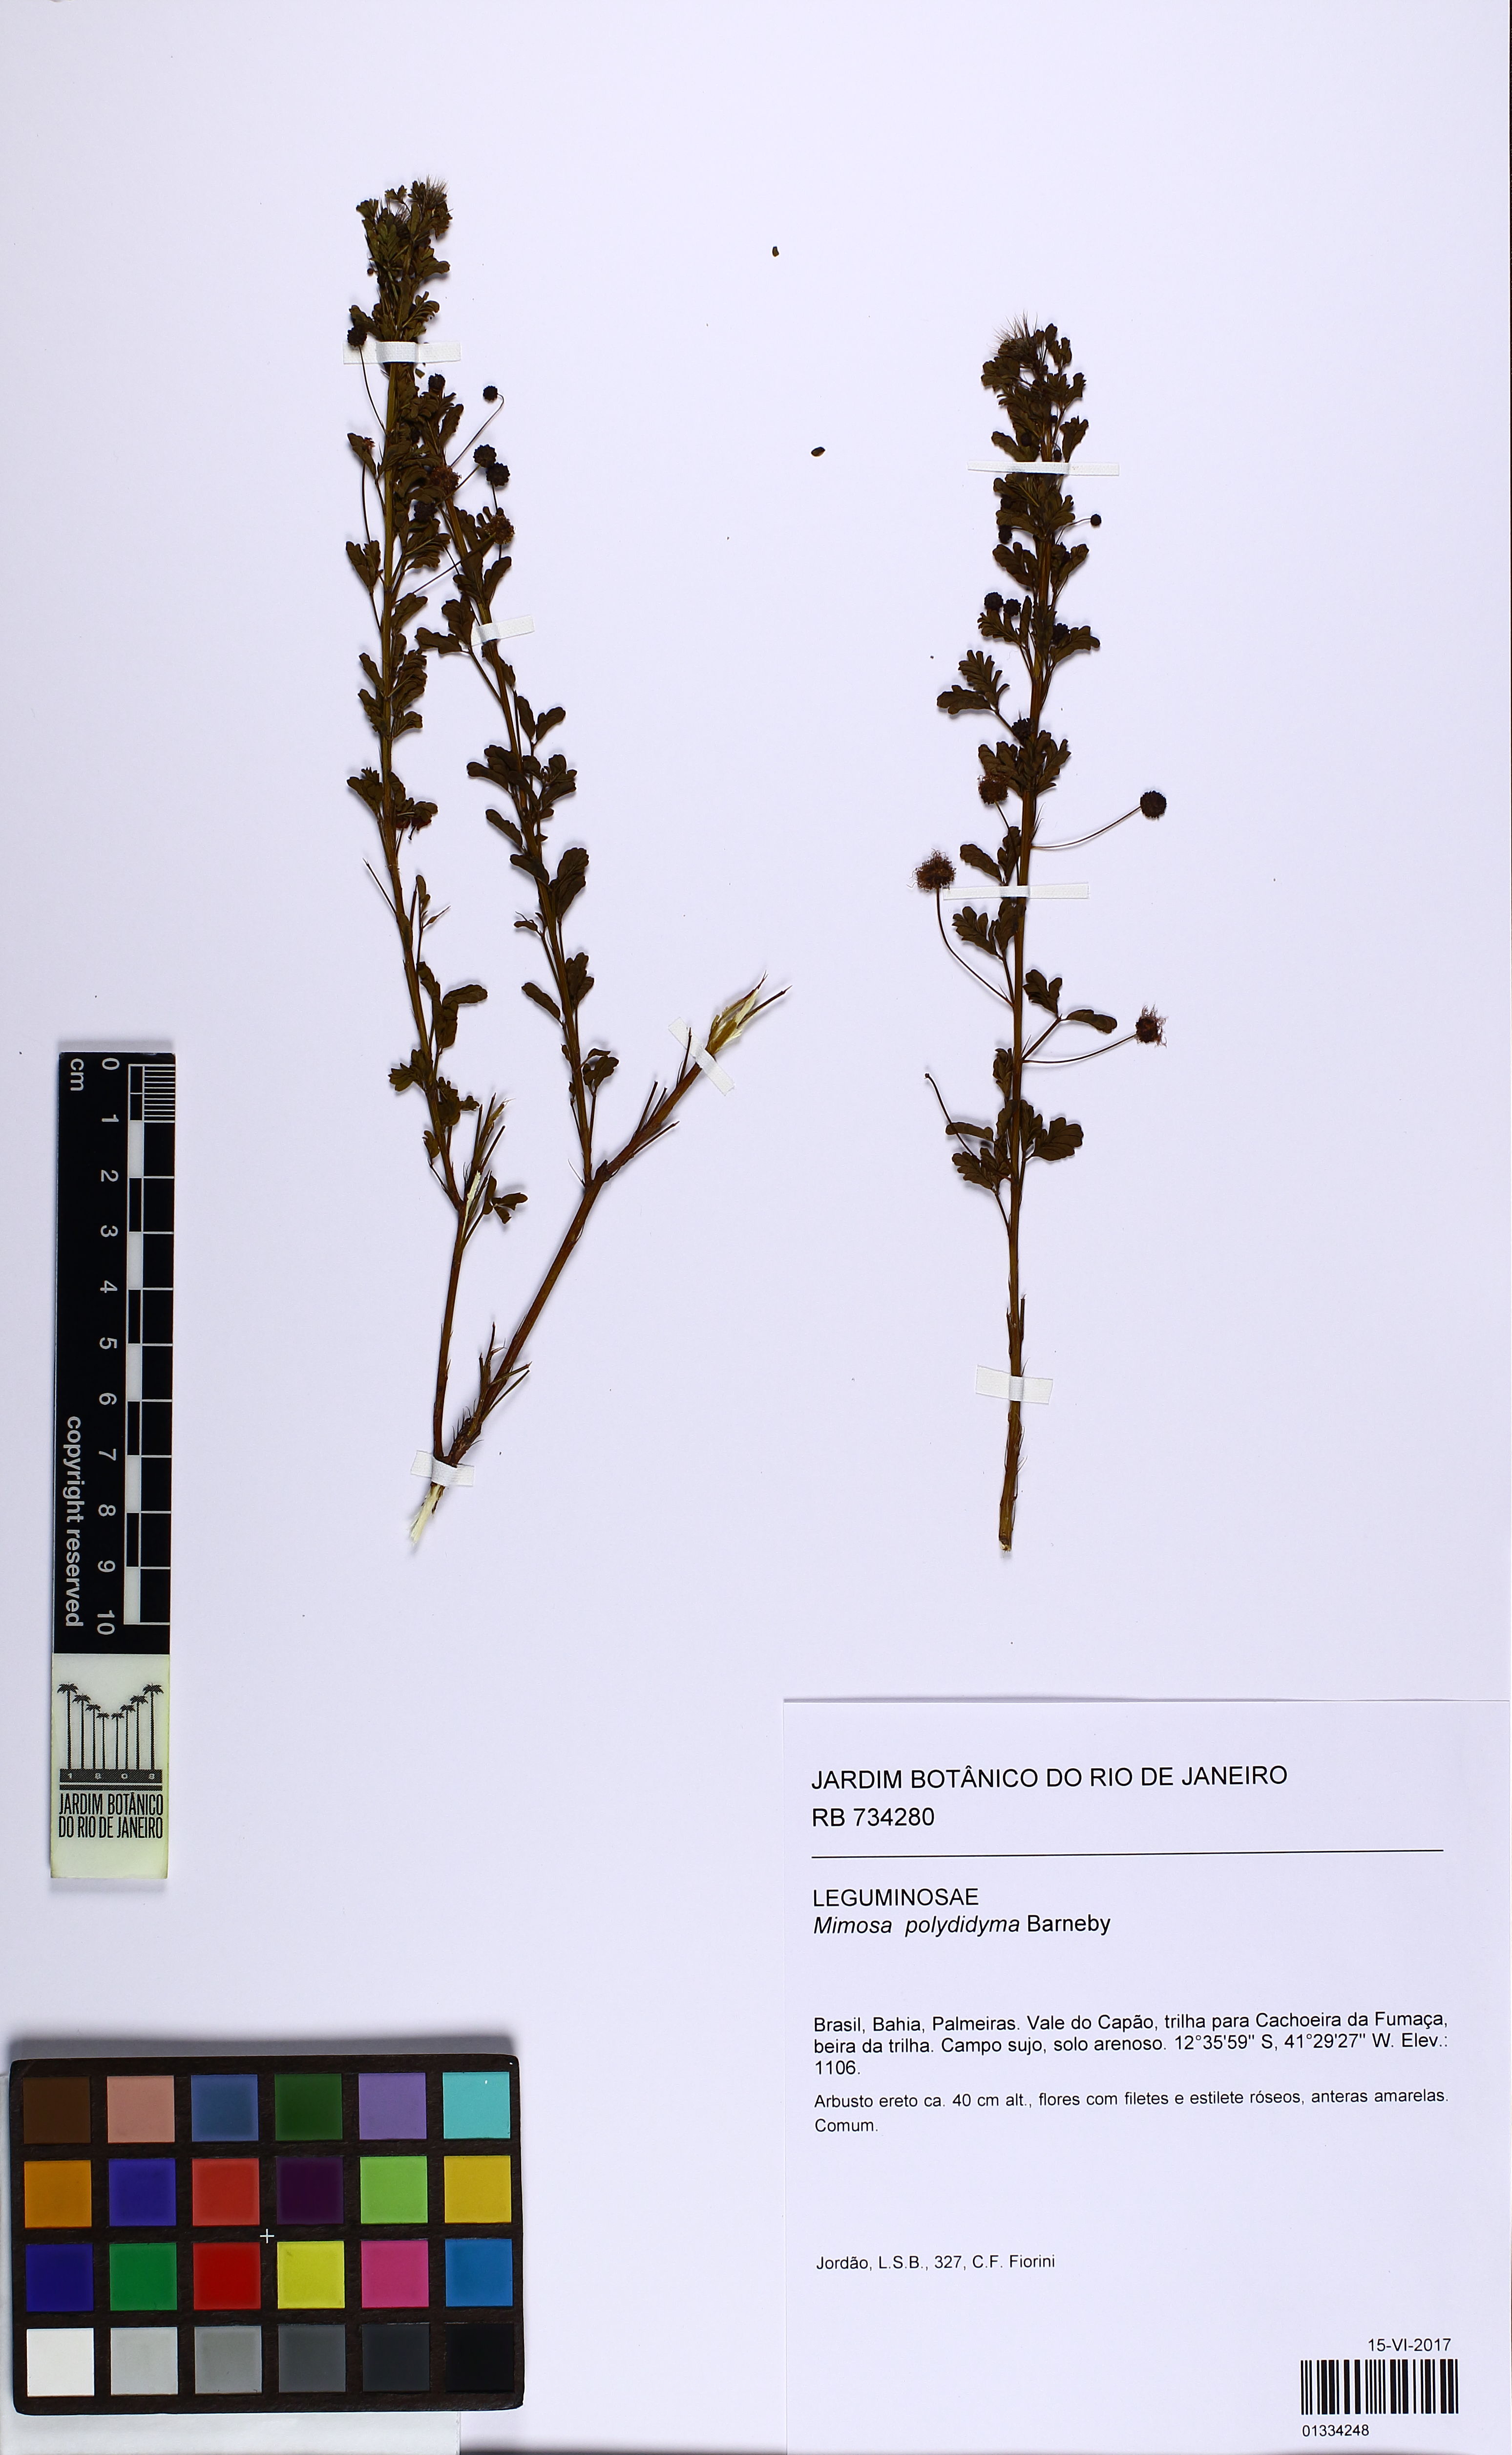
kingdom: Plantae
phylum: Tracheophyta
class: Magnoliopsida
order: Fabales
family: Fabaceae
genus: Mimosa
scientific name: Mimosa polydidyma
